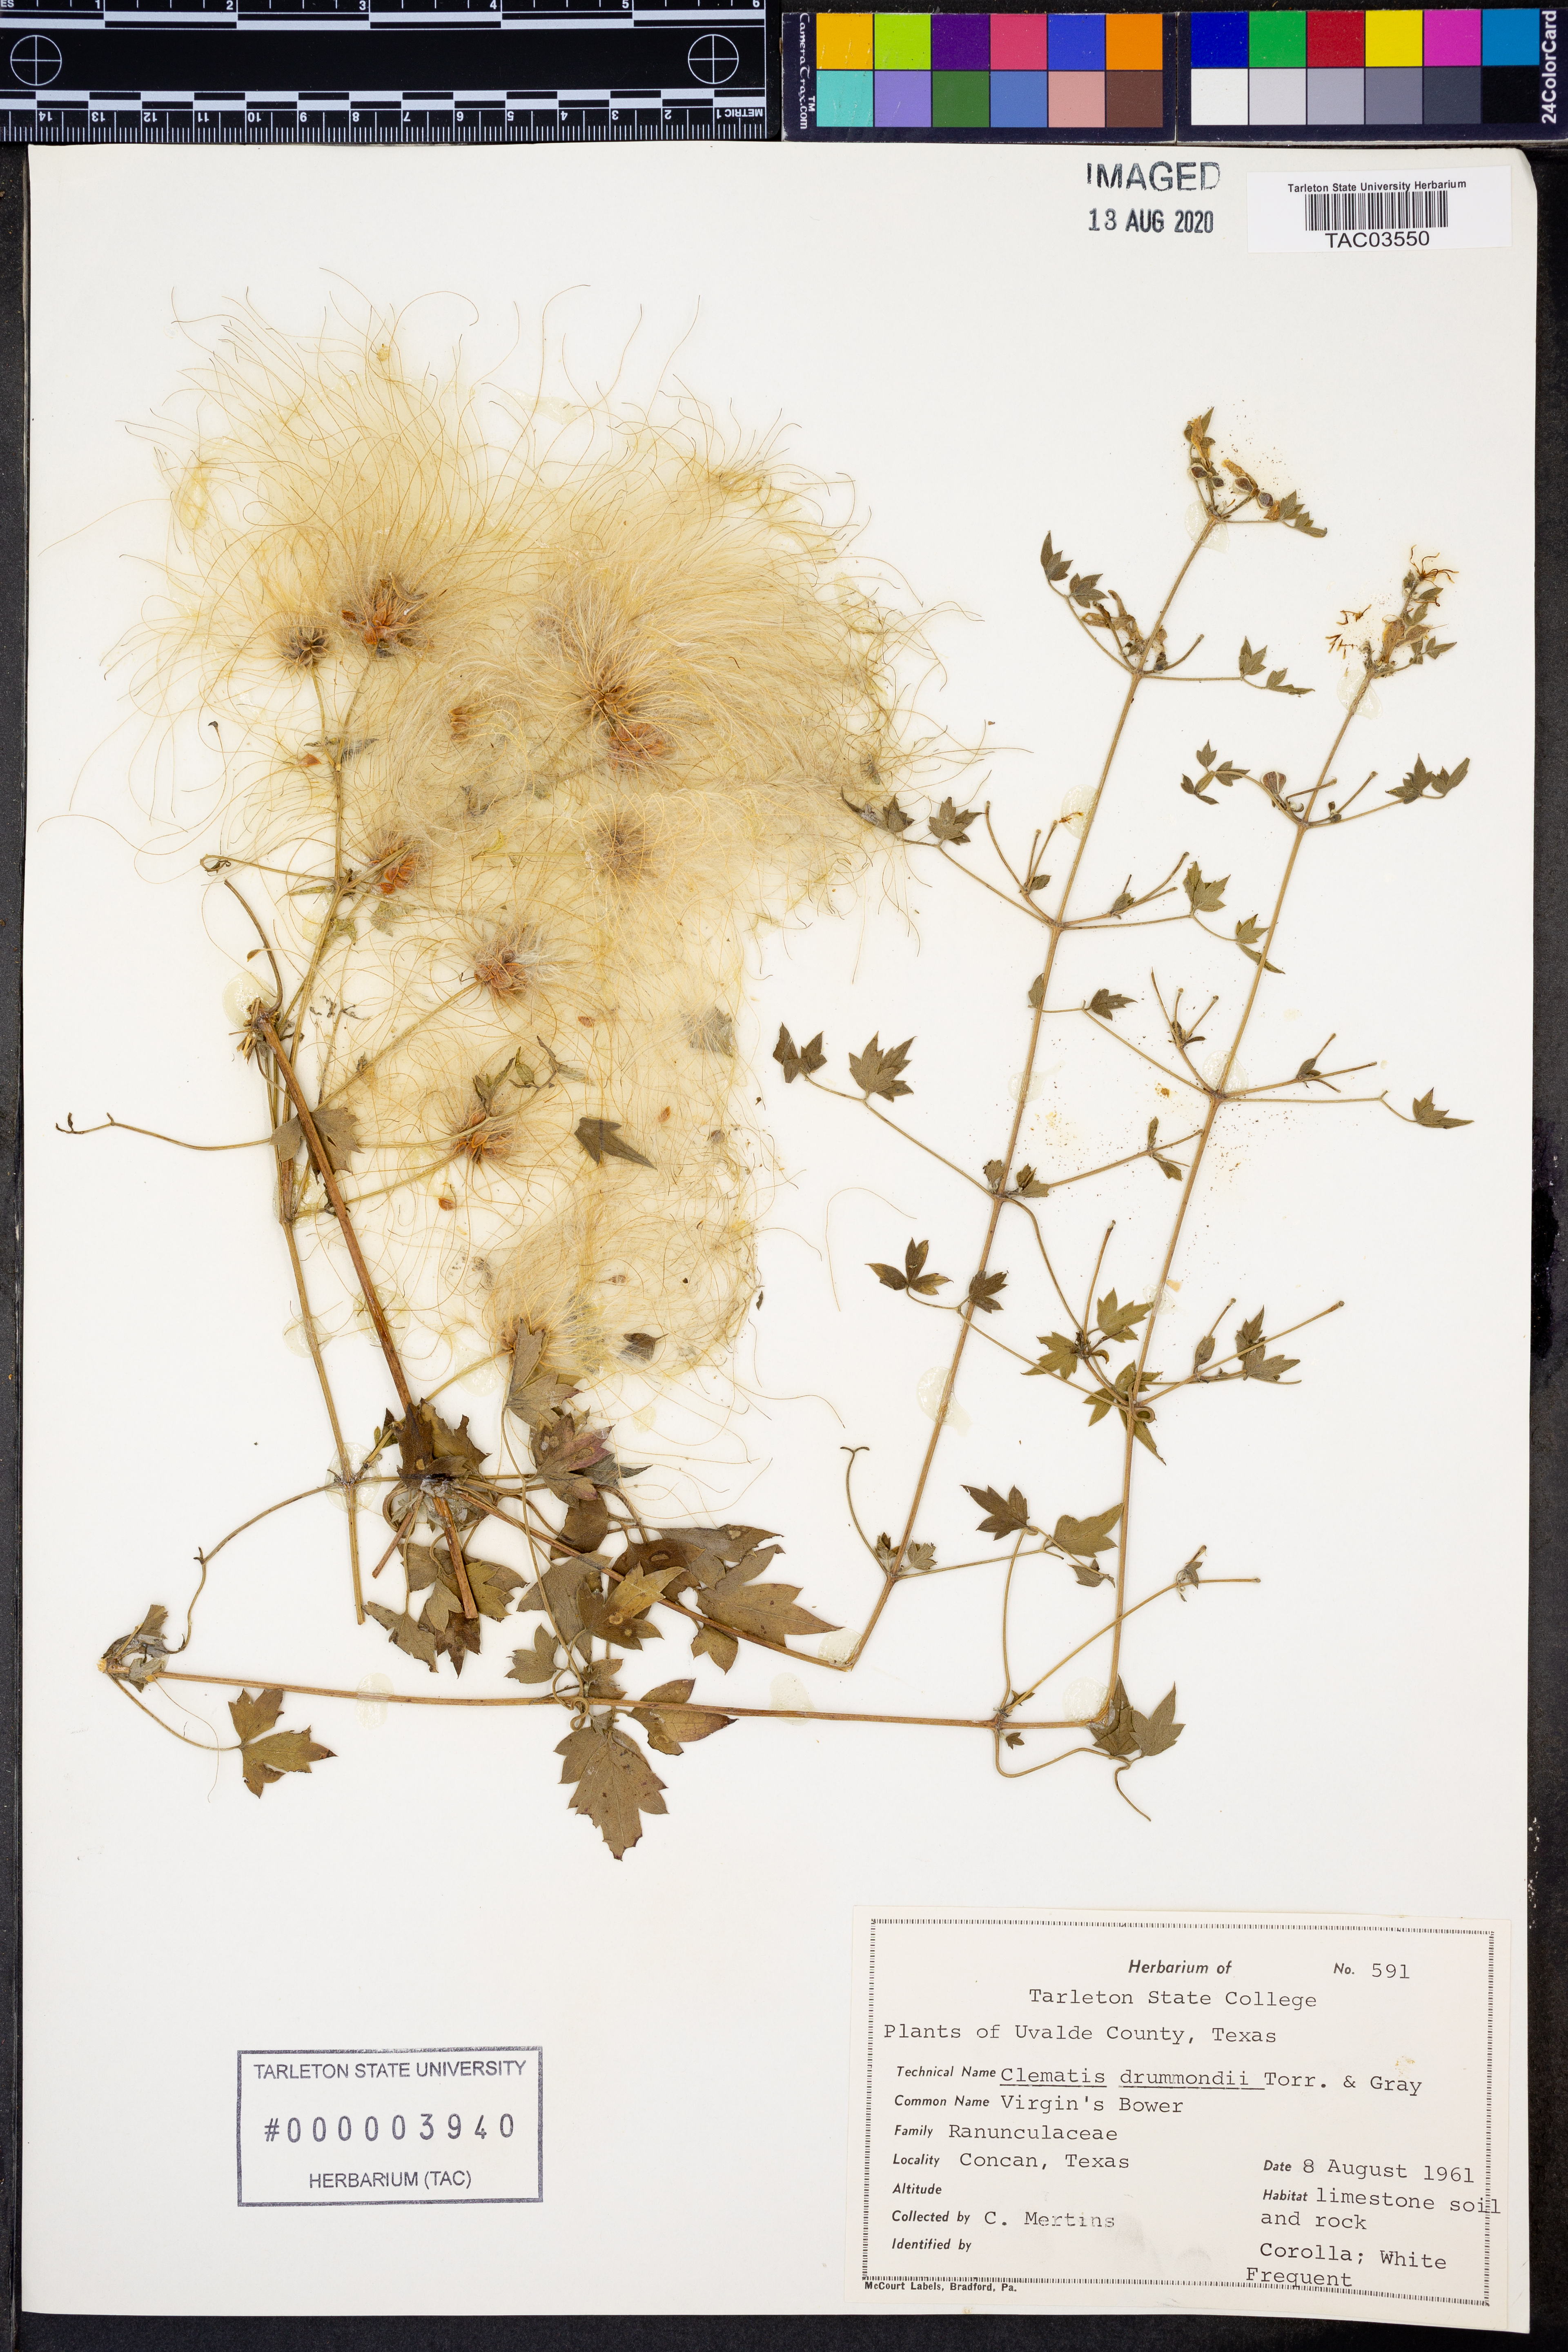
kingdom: Plantae
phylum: Tracheophyta
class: Magnoliopsida
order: Ranunculales
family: Ranunculaceae
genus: Clematis
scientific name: Clematis drummondii
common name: Texas virgin's bower
